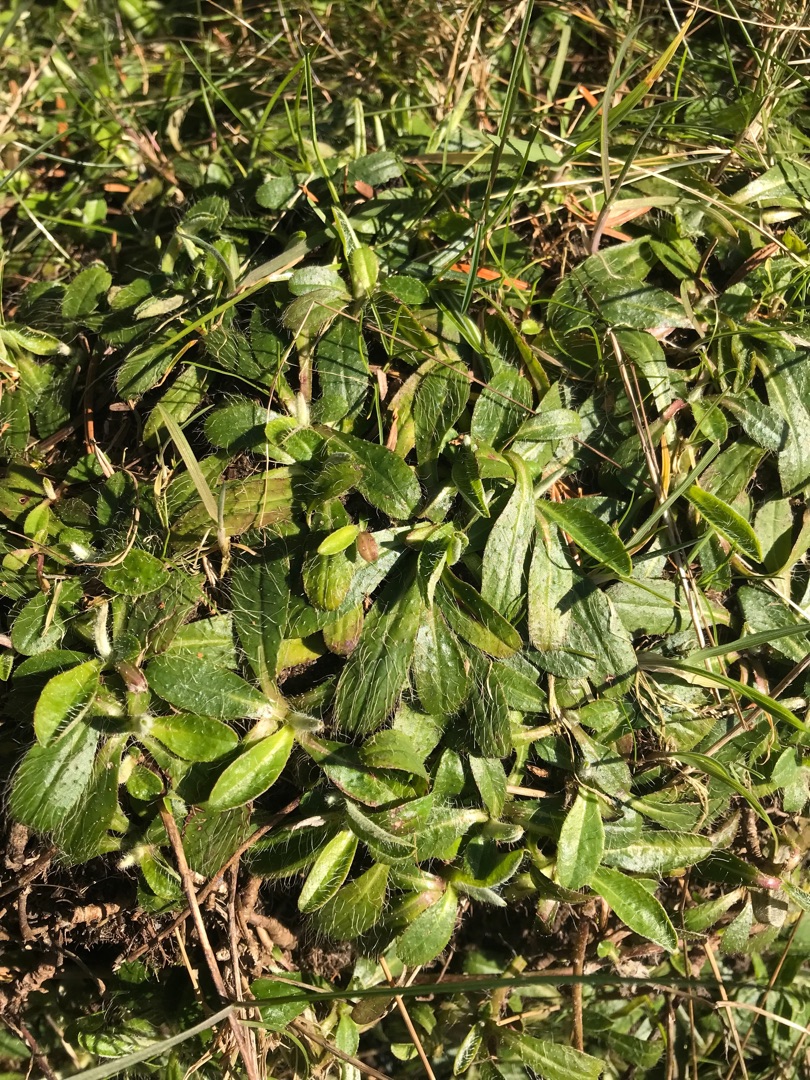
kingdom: Plantae
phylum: Tracheophyta
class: Magnoliopsida
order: Asterales
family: Asteraceae
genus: Pilosella
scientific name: Pilosella officinarum
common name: Håret høgeurt
